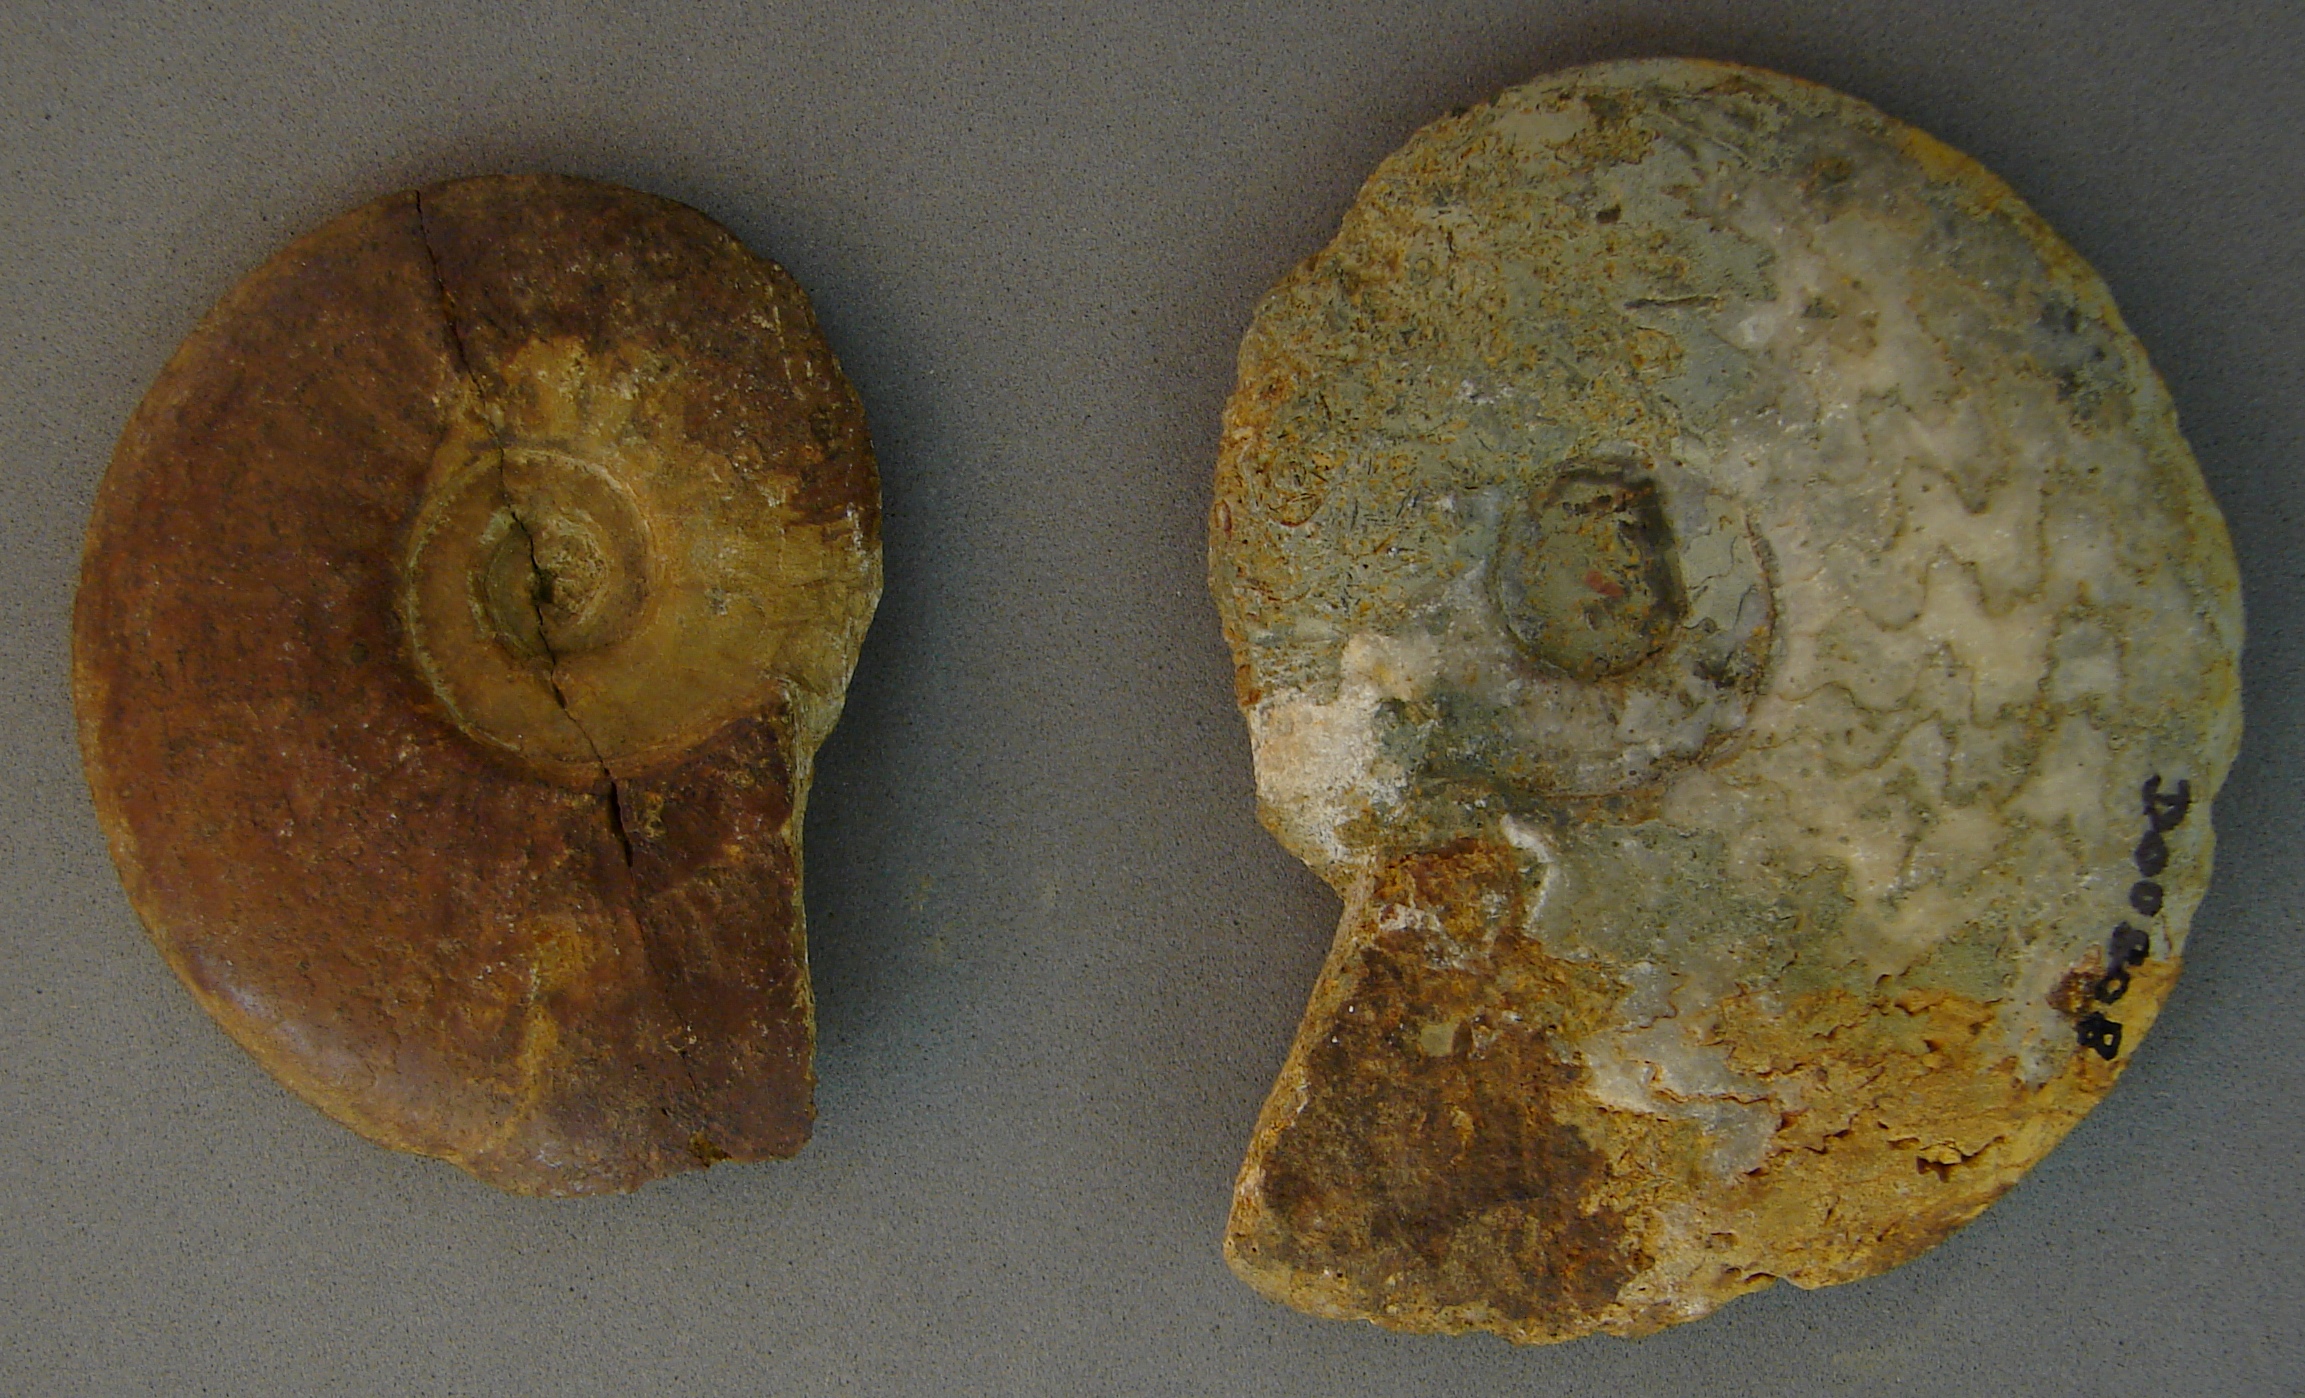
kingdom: Animalia
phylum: Mollusca
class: Cephalopoda
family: Hildoceratidae
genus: Pleydellia
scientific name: Pleydellia
